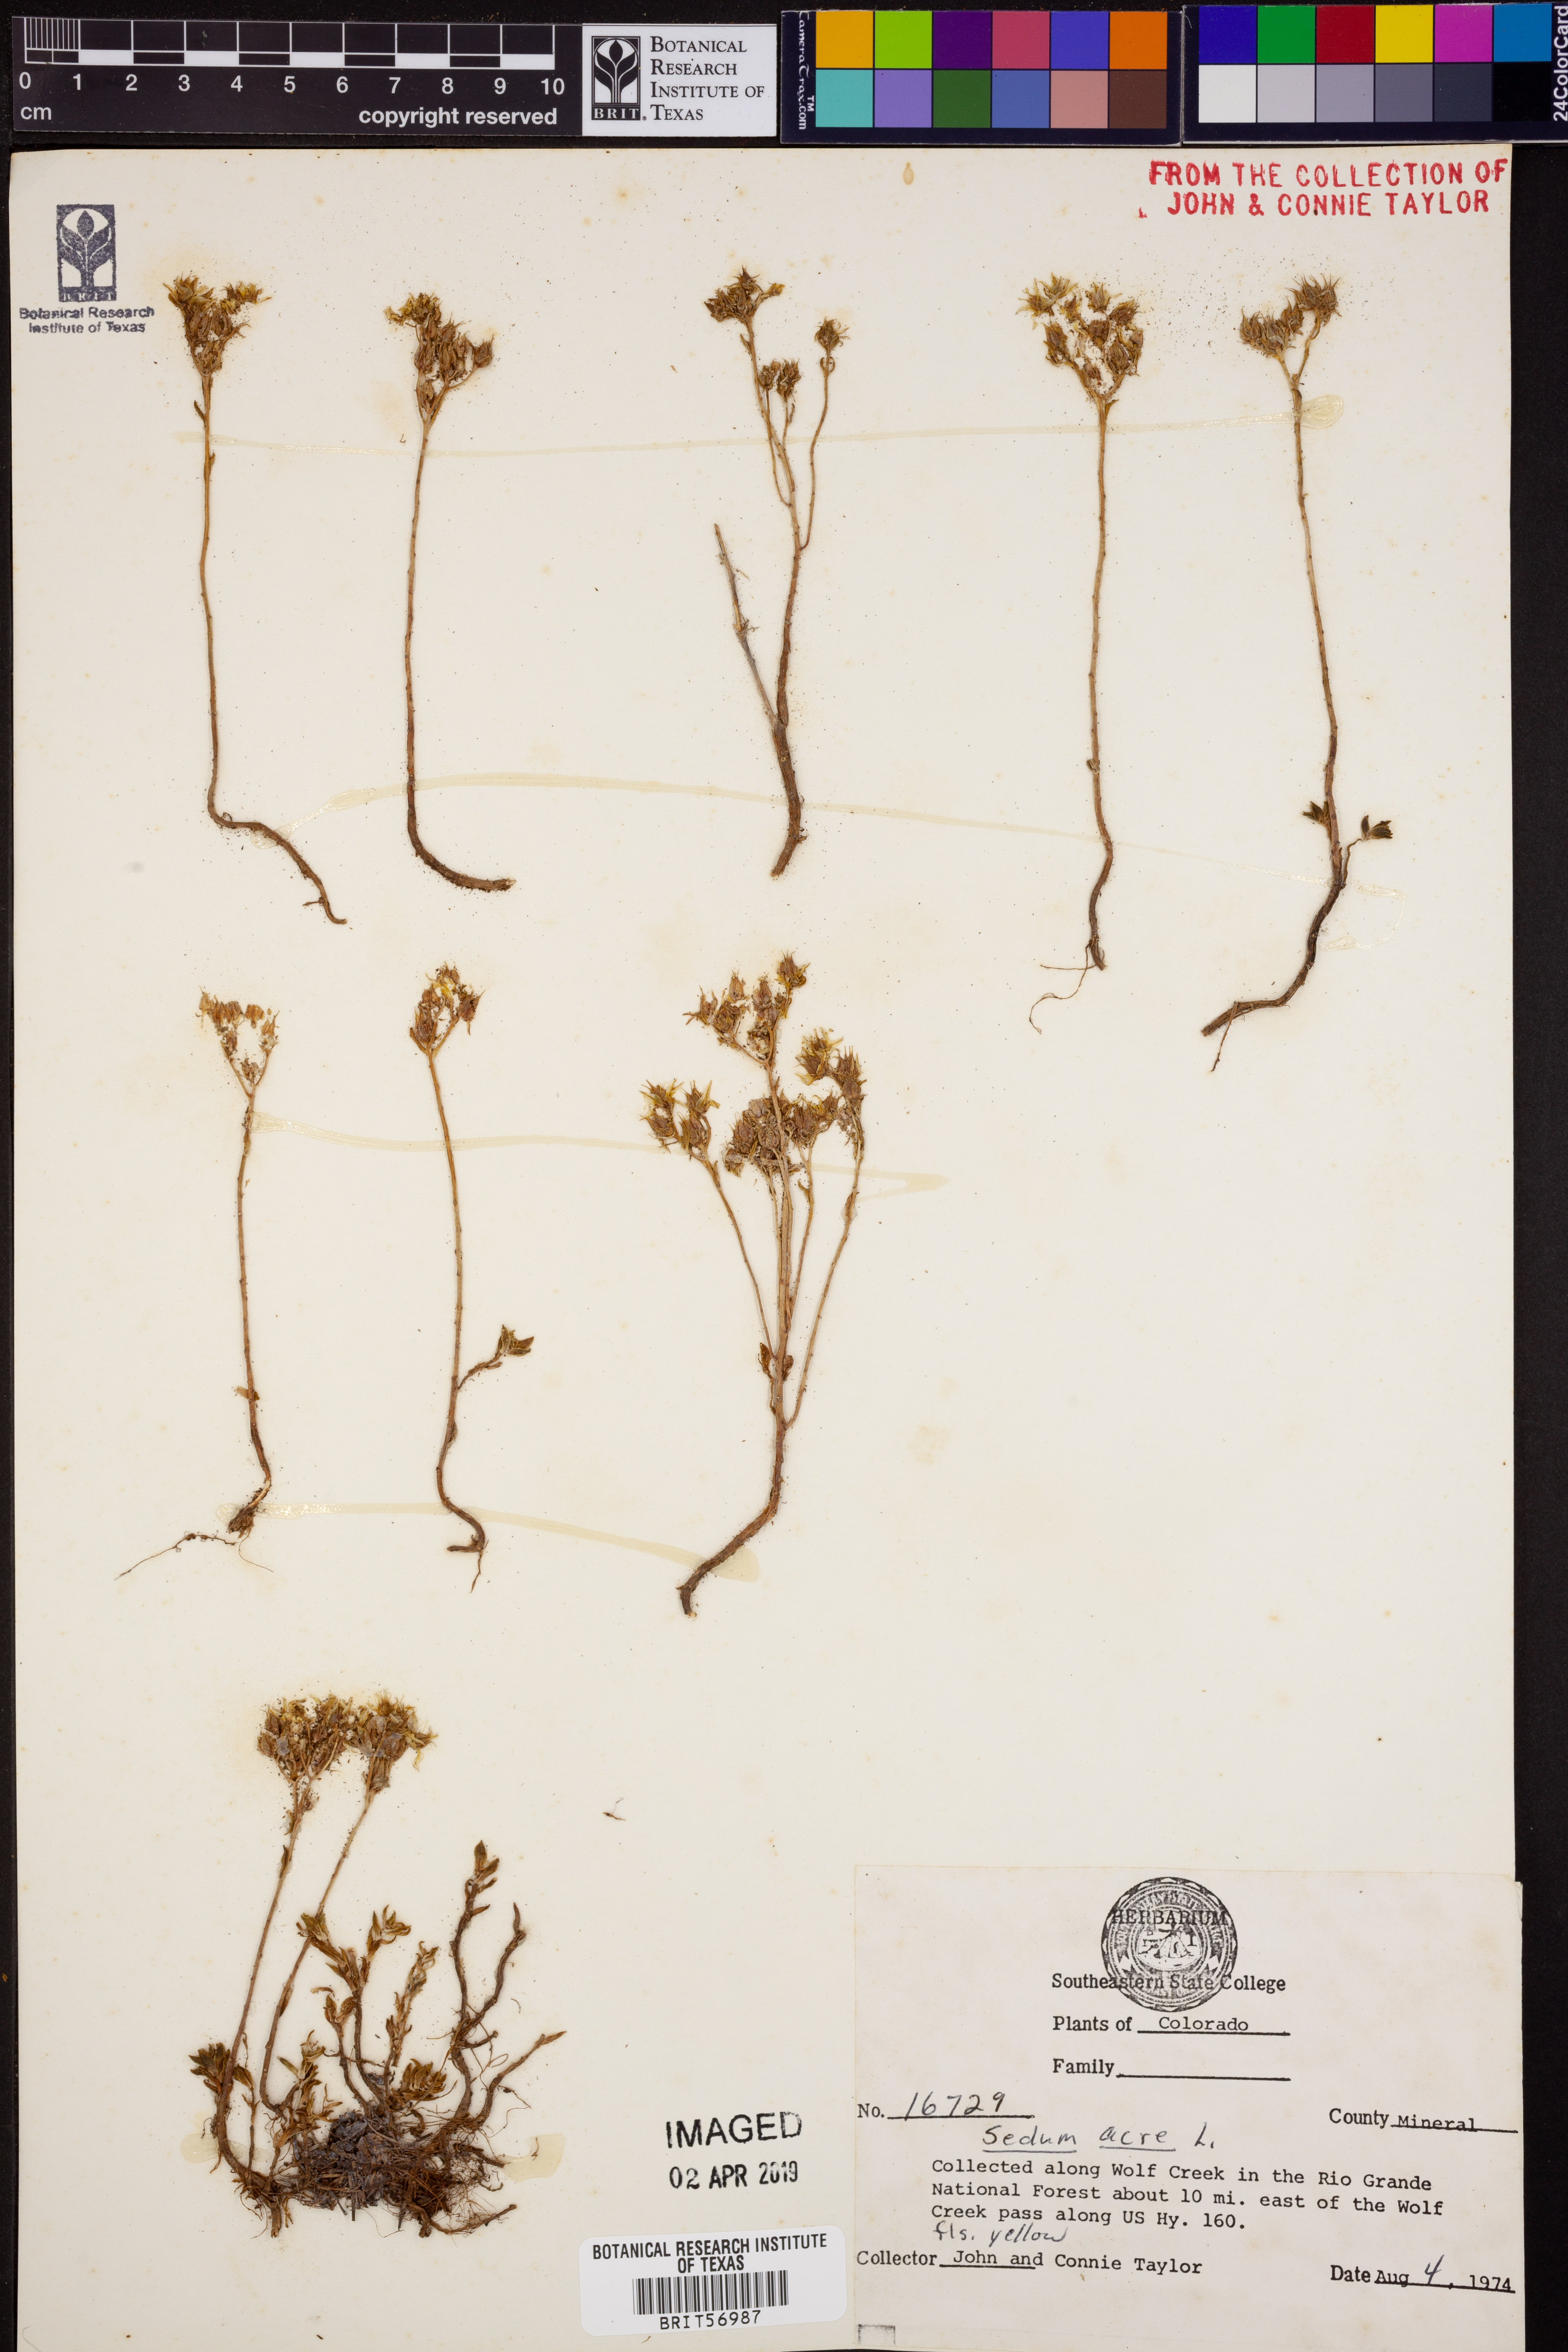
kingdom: Plantae
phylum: Tracheophyta
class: Magnoliopsida
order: Saxifragales
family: Crassulaceae
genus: Sedum
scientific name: Sedum acre
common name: Biting stonecrop
